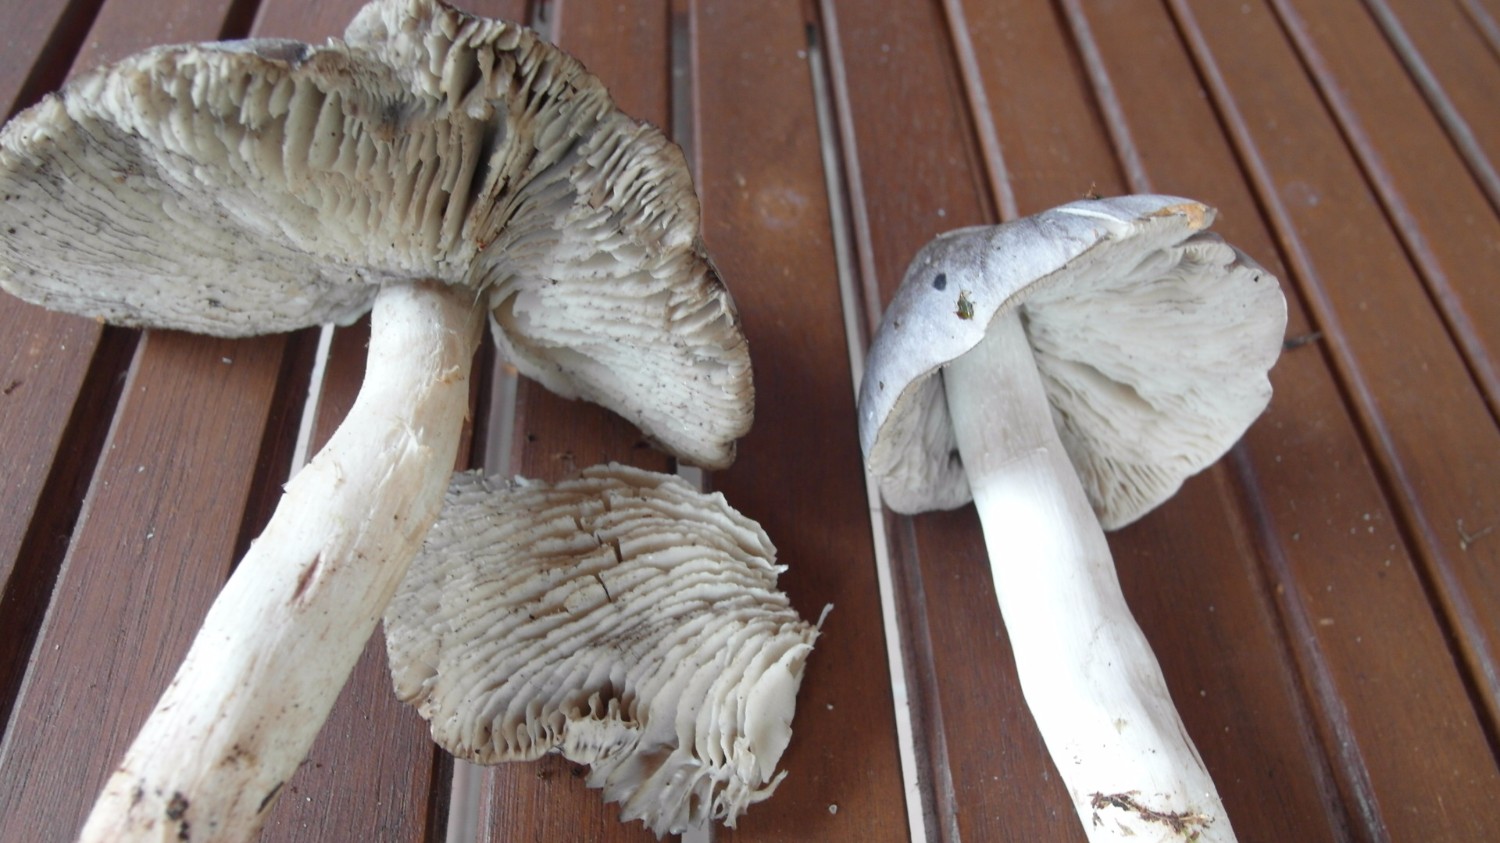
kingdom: Fungi
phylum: Basidiomycota
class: Agaricomycetes
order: Agaricales
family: Tricholomataceae
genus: Tricholoma
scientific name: Tricholoma virgatum
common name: nålestribet ridderhat
